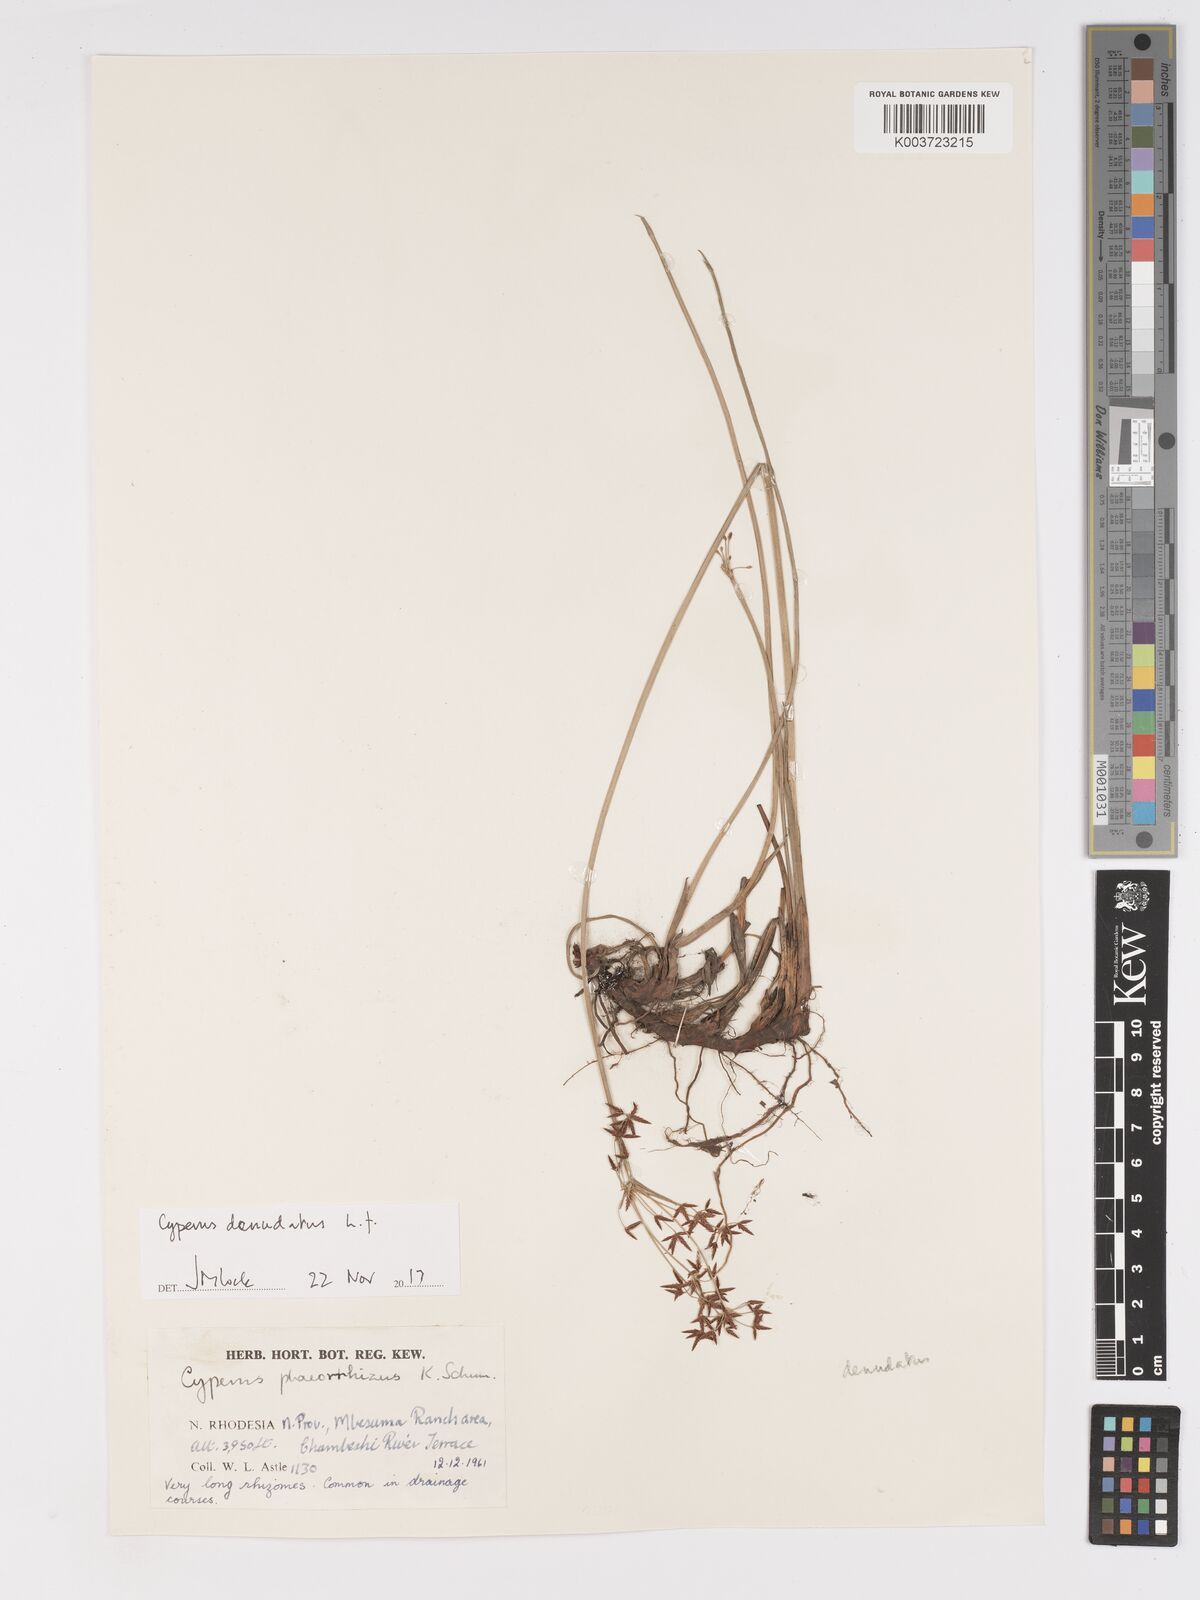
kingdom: Plantae
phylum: Tracheophyta
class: Liliopsida
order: Poales
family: Cyperaceae
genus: Cyperus
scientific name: Cyperus haspan
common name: Haspan flatsedge
